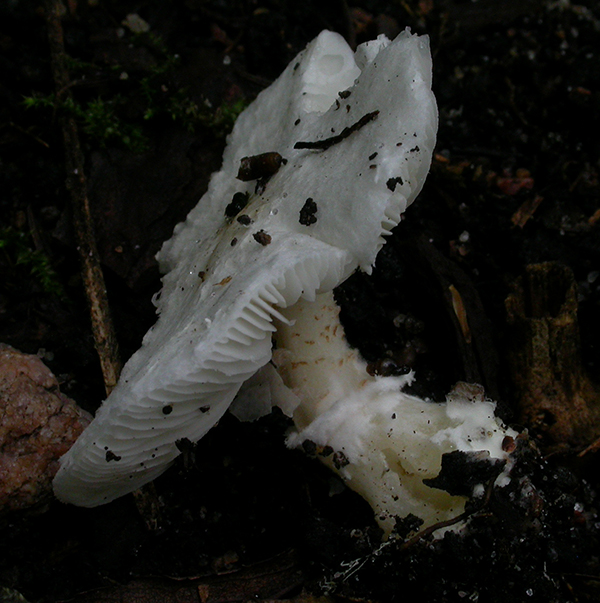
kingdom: Fungi
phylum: Basidiomycota
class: Agaricomycetes
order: Agaricales
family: Agaricaceae
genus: Leucoagaricus
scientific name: Leucoagaricus badhamii
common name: rødmende silkehat
